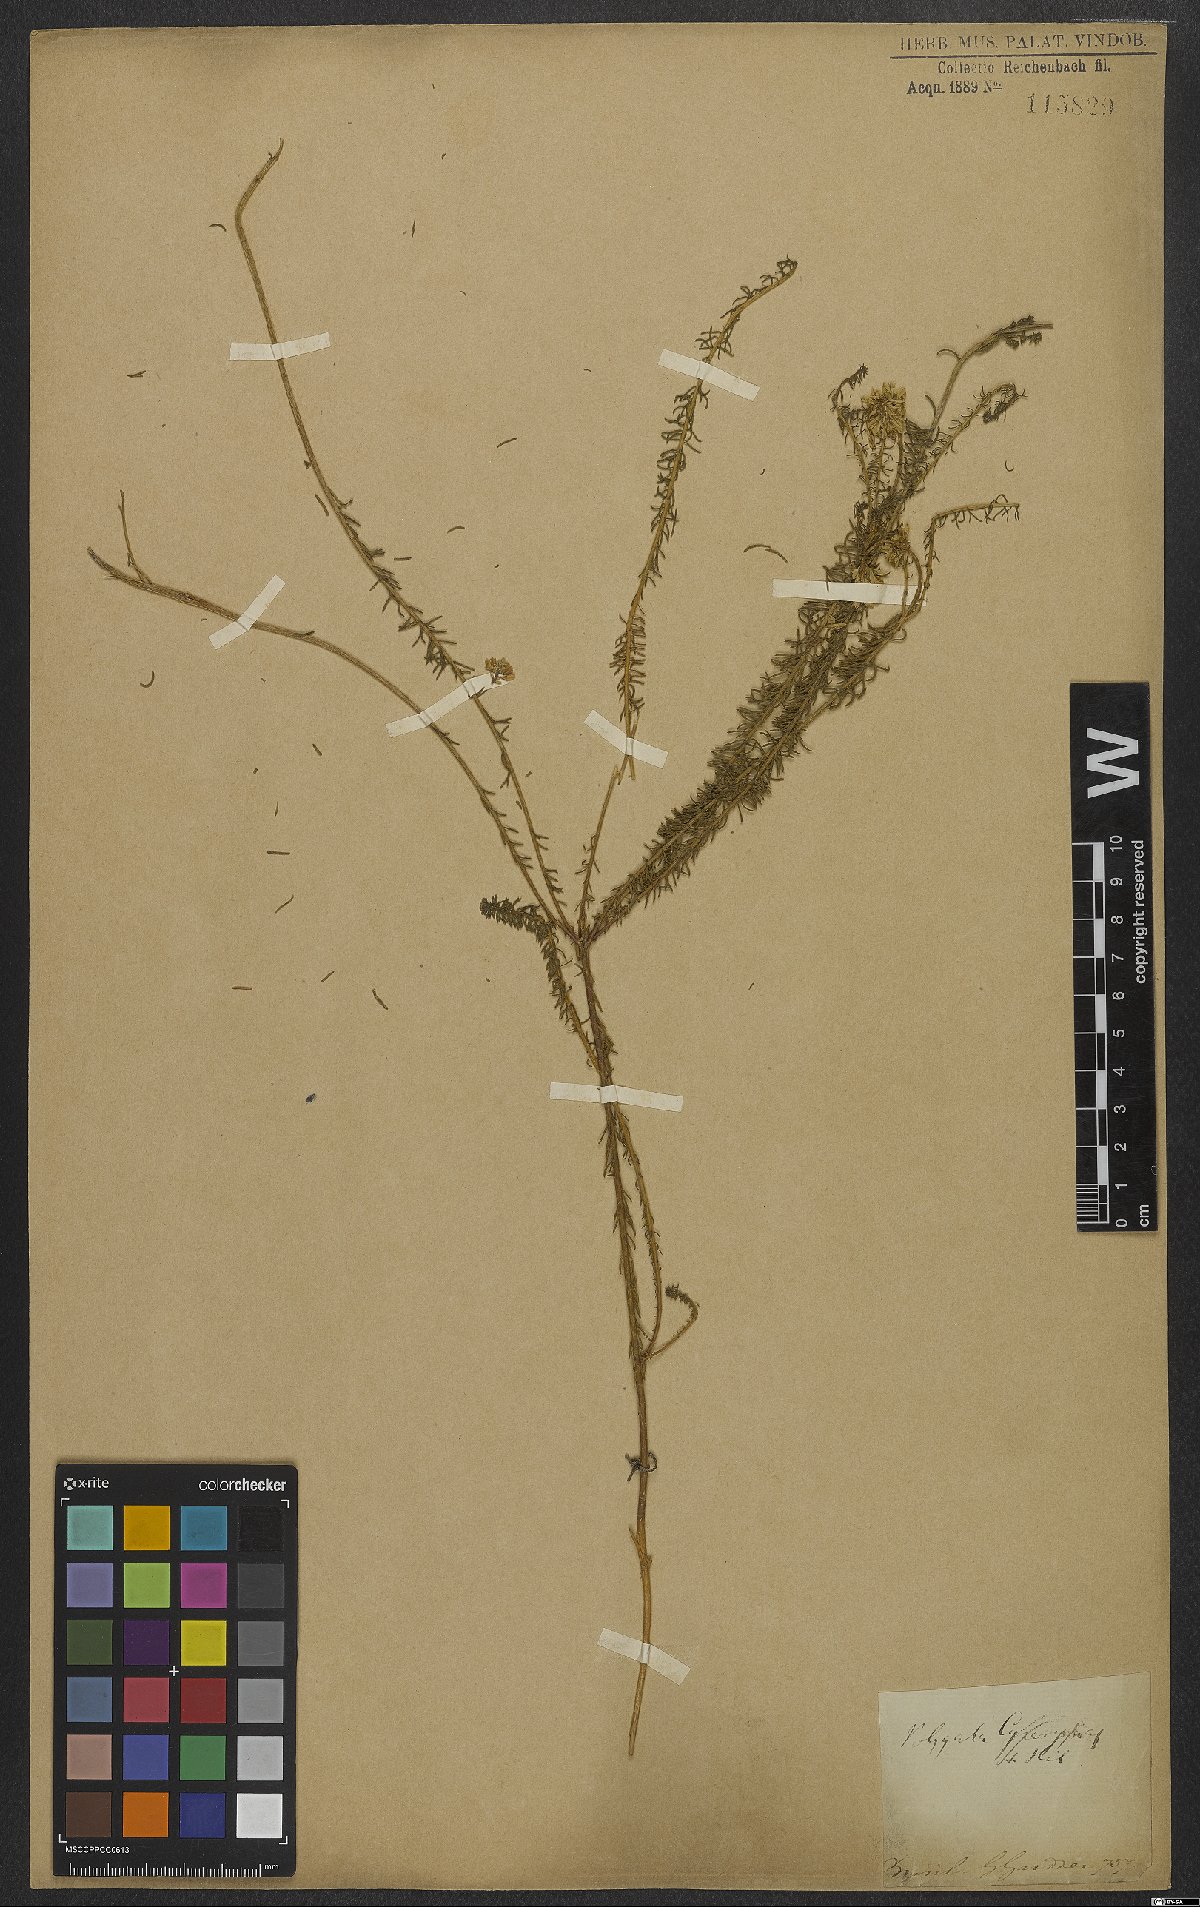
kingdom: Plantae
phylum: Tracheophyta
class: Magnoliopsida
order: Fabales
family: Polygalaceae
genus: Polygala
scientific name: Polygala cyparissias
